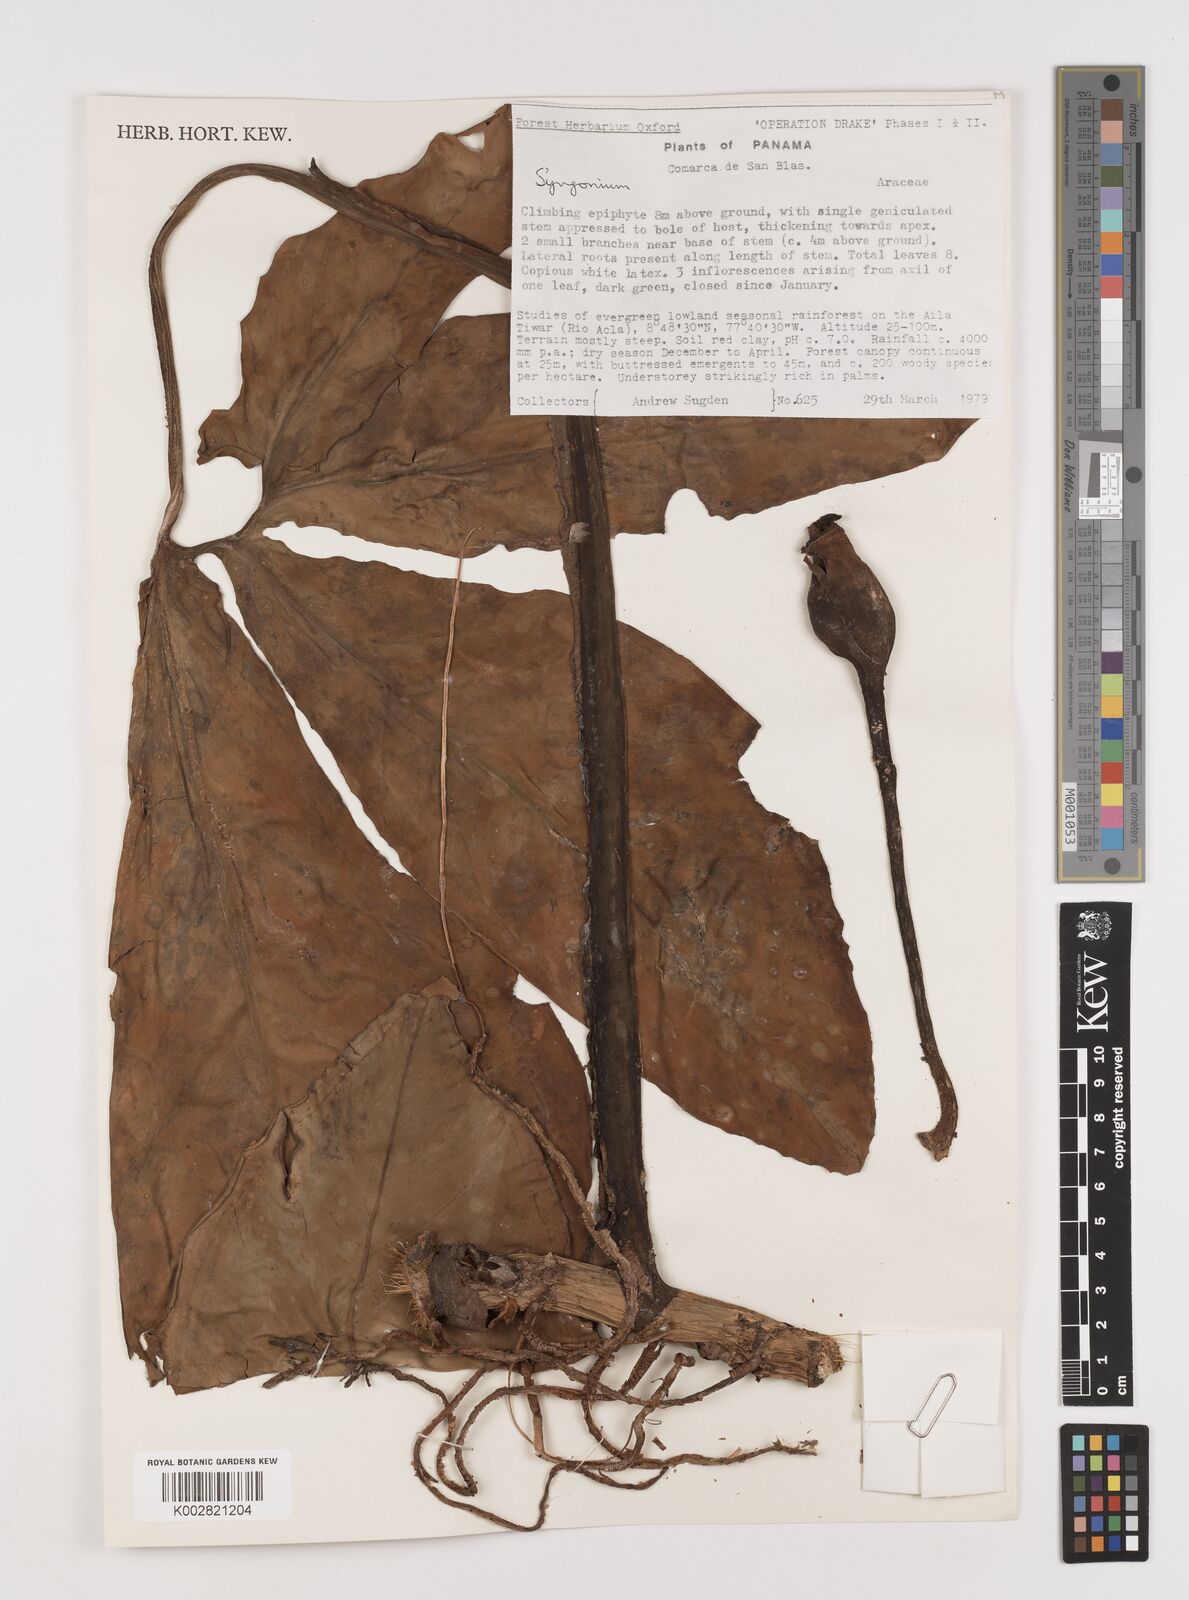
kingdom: Plantae
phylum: Tracheophyta
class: Liliopsida
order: Alismatales
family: Araceae
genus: Syngonium
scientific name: Syngonium
